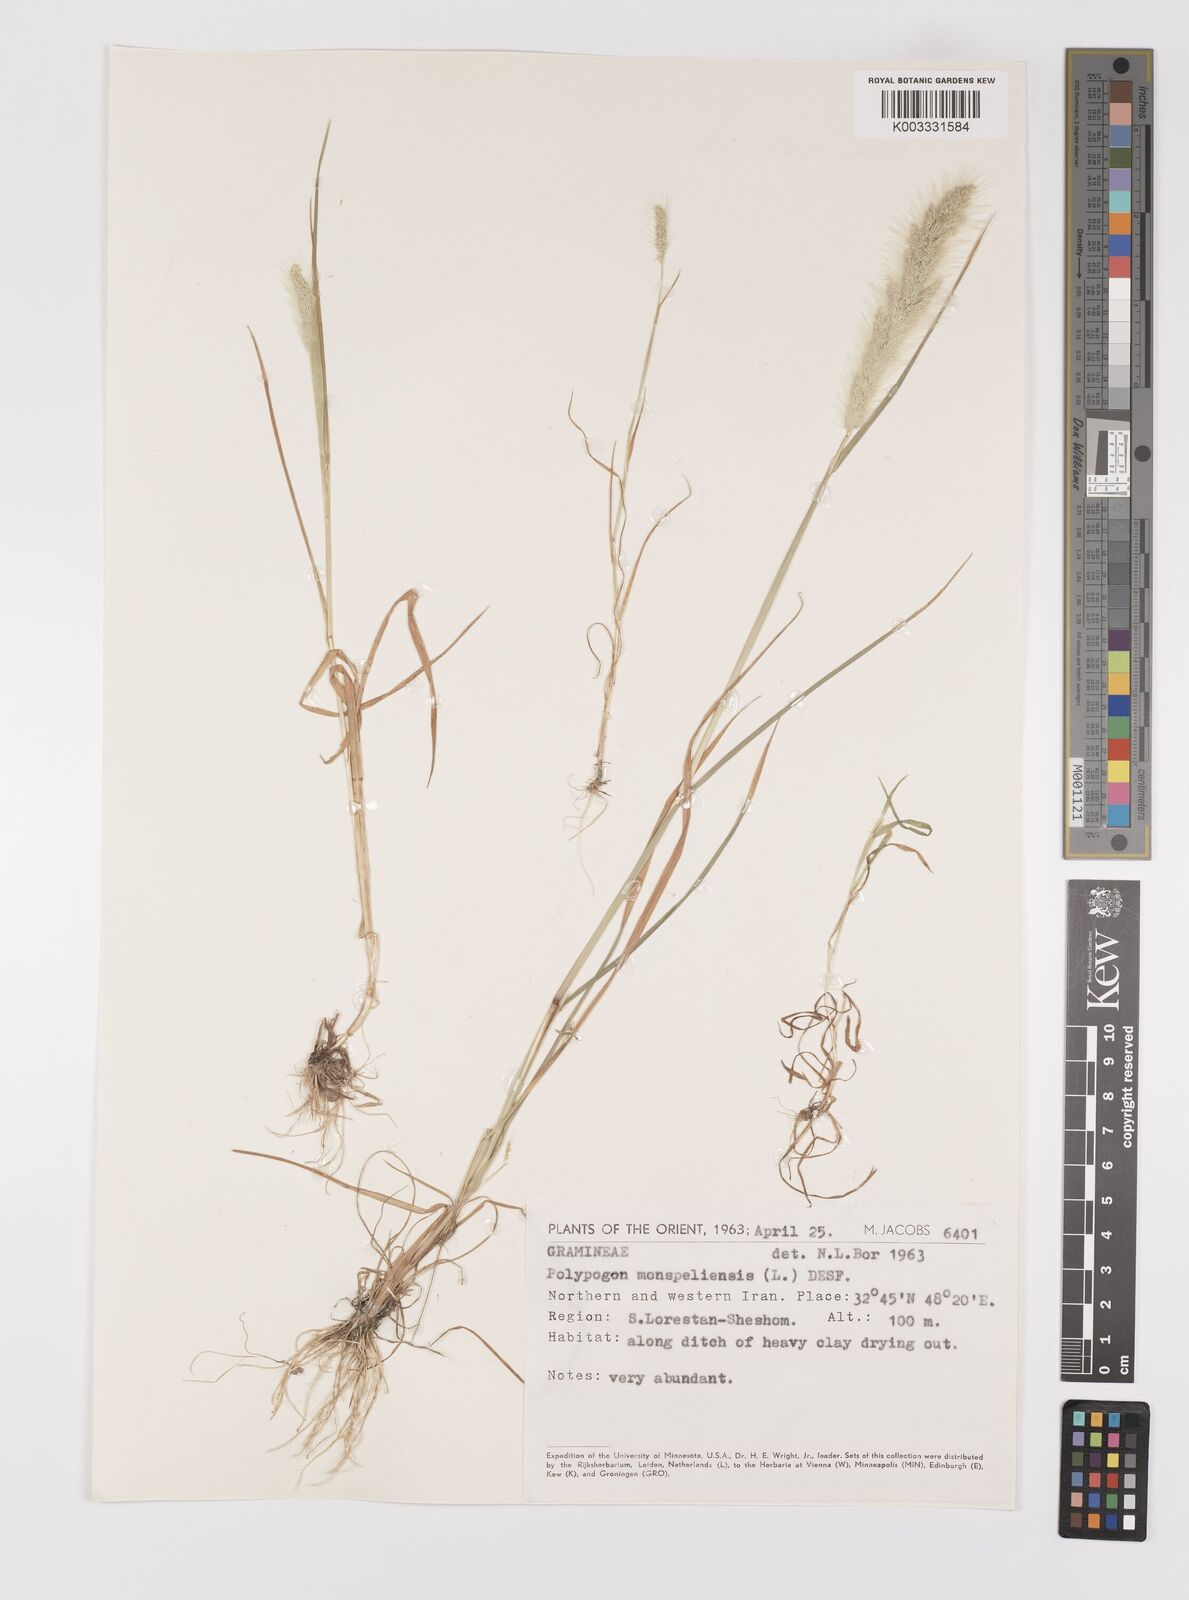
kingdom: Plantae
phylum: Tracheophyta
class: Liliopsida
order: Poales
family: Poaceae
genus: Polypogon
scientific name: Polypogon monspeliensis
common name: Annual rabbitsfoot grass
